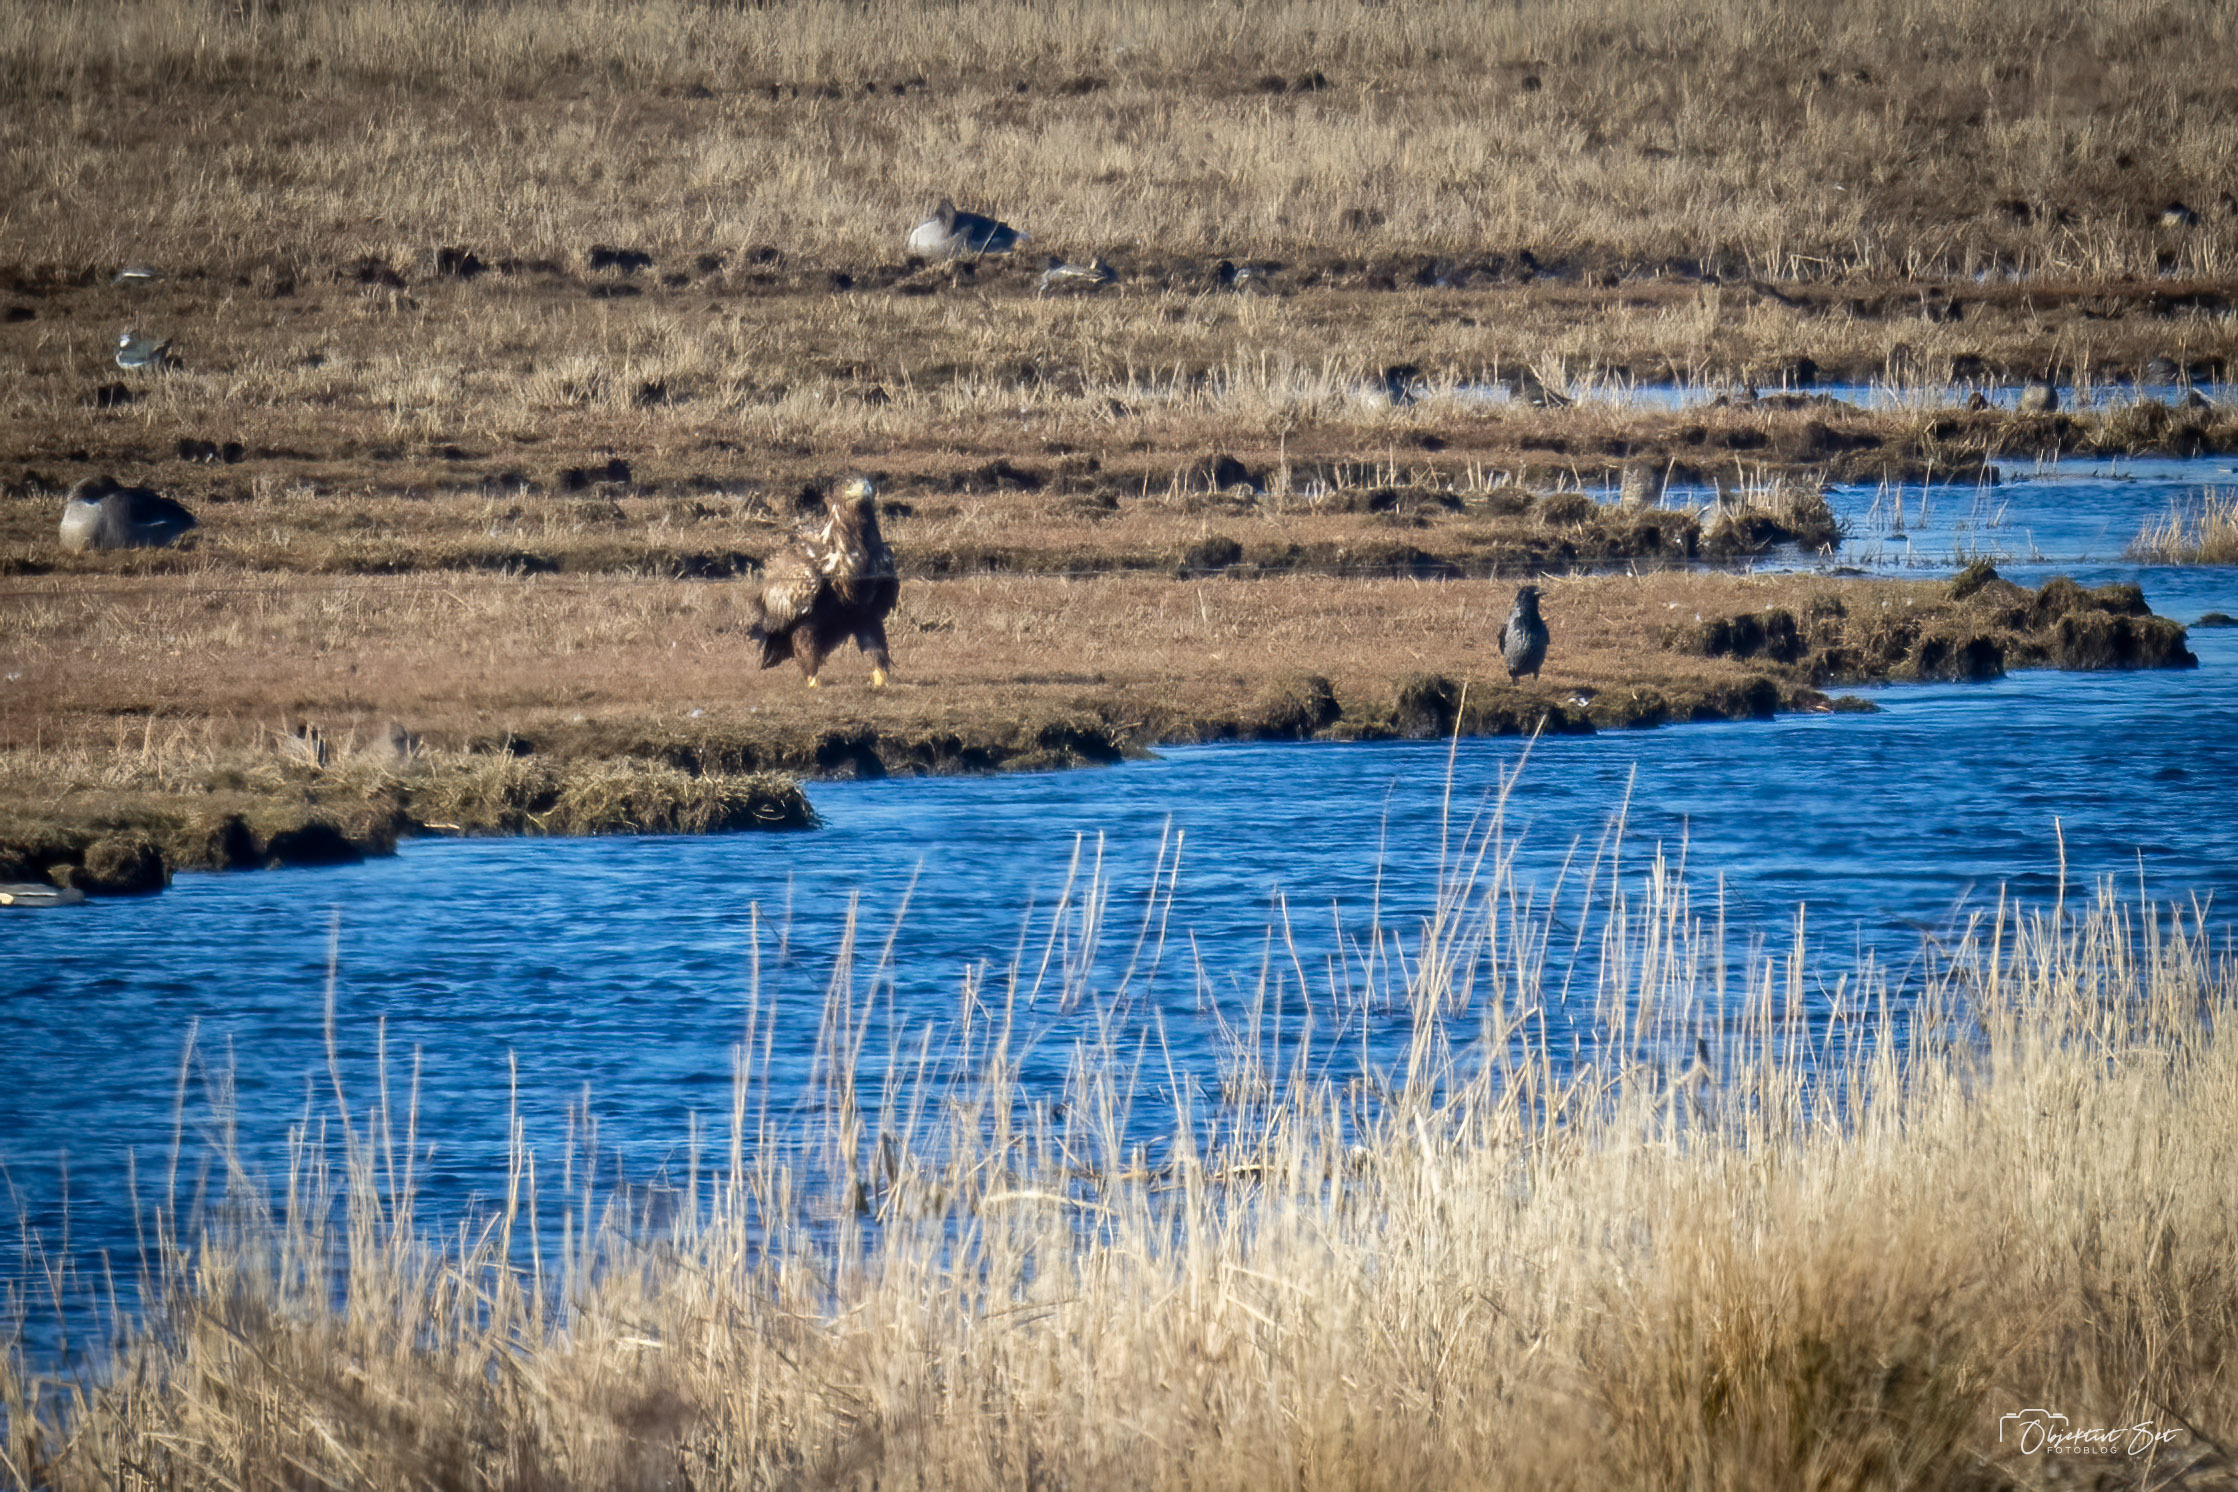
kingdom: Animalia
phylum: Chordata
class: Aves
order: Accipitriformes
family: Accipitridae
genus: Haliaeetus
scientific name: Haliaeetus albicilla
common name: Havørn
